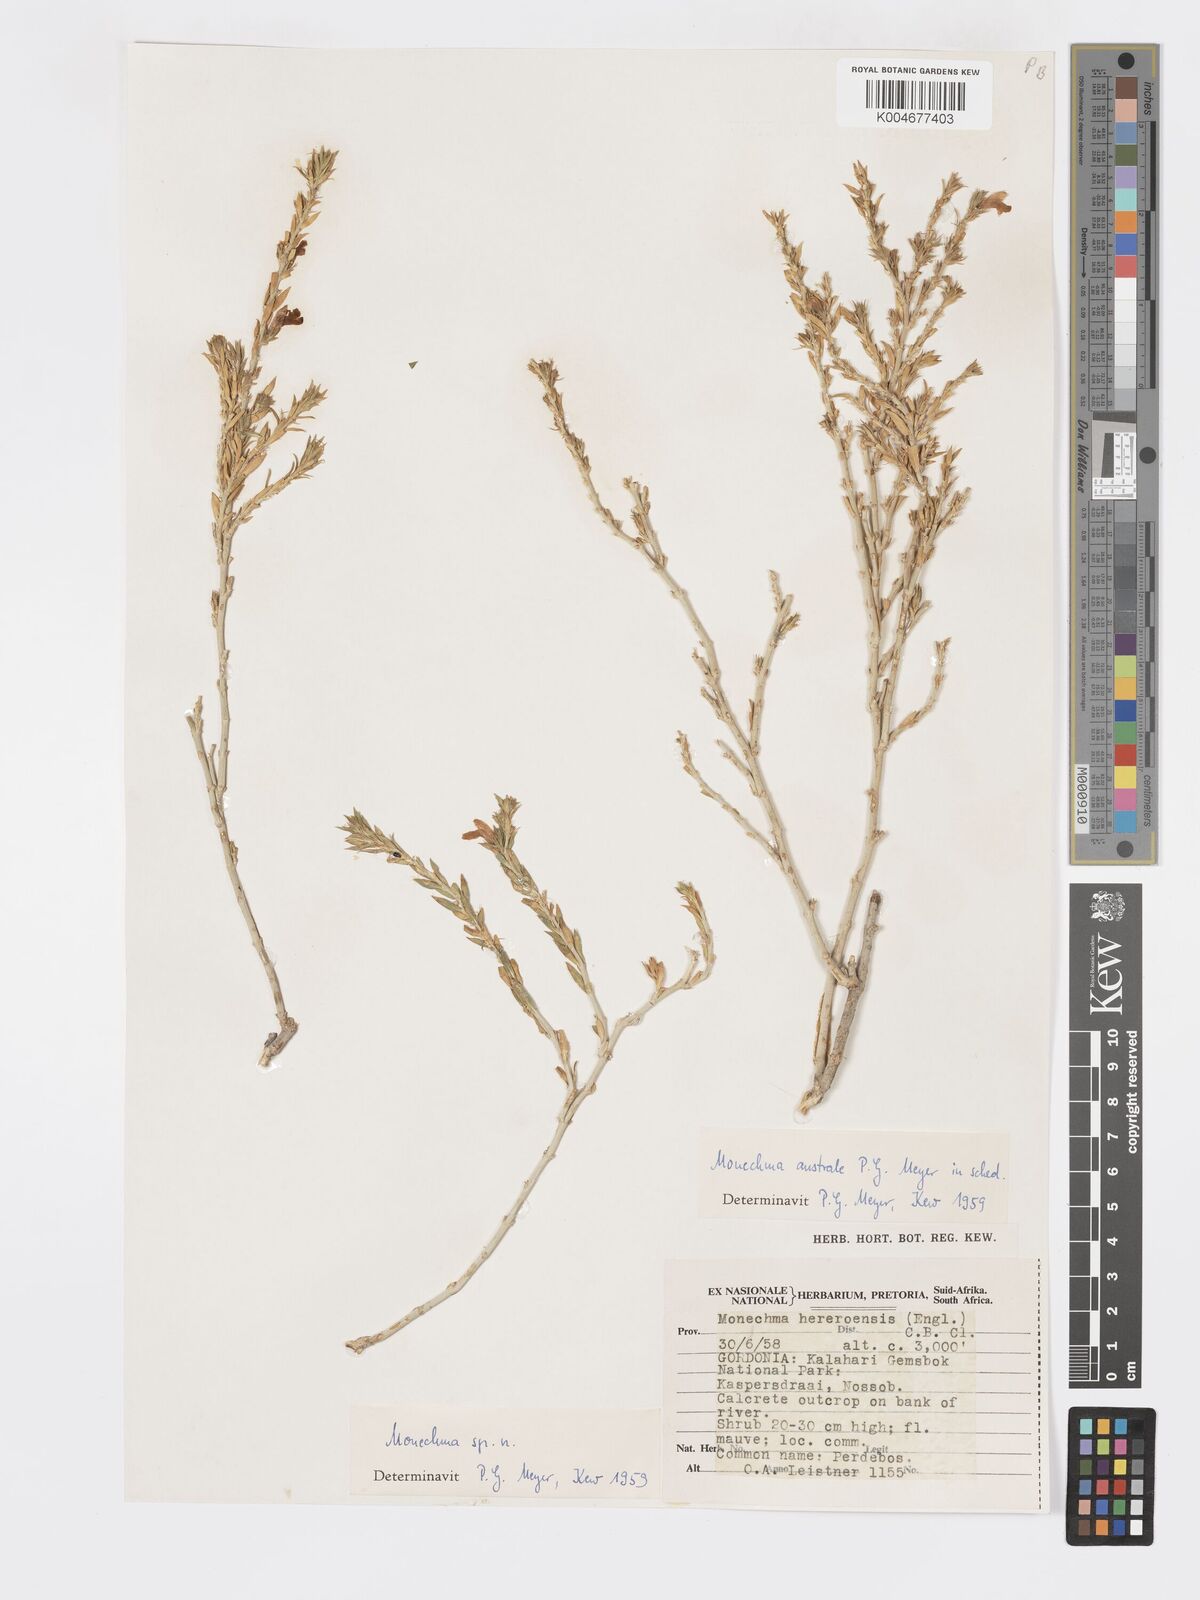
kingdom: Plantae
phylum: Tracheophyta
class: Magnoliopsida
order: Lamiales
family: Acanthaceae
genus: Pogonospermum
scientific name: Pogonospermum
